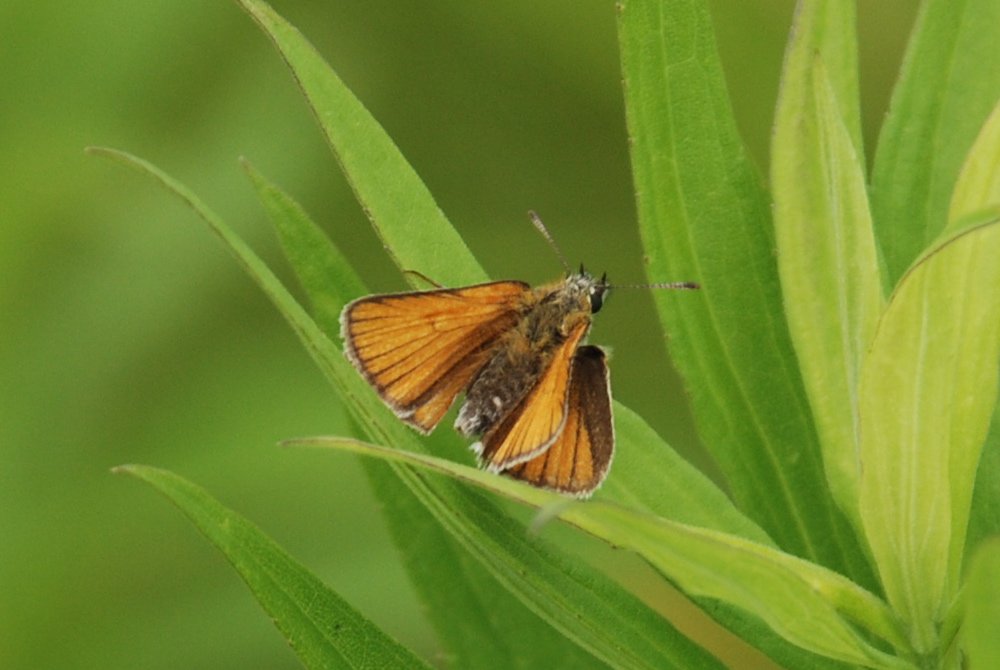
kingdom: Animalia
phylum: Arthropoda
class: Insecta
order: Lepidoptera
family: Hesperiidae
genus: Thymelicus
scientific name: Thymelicus lineola
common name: European Skipper
